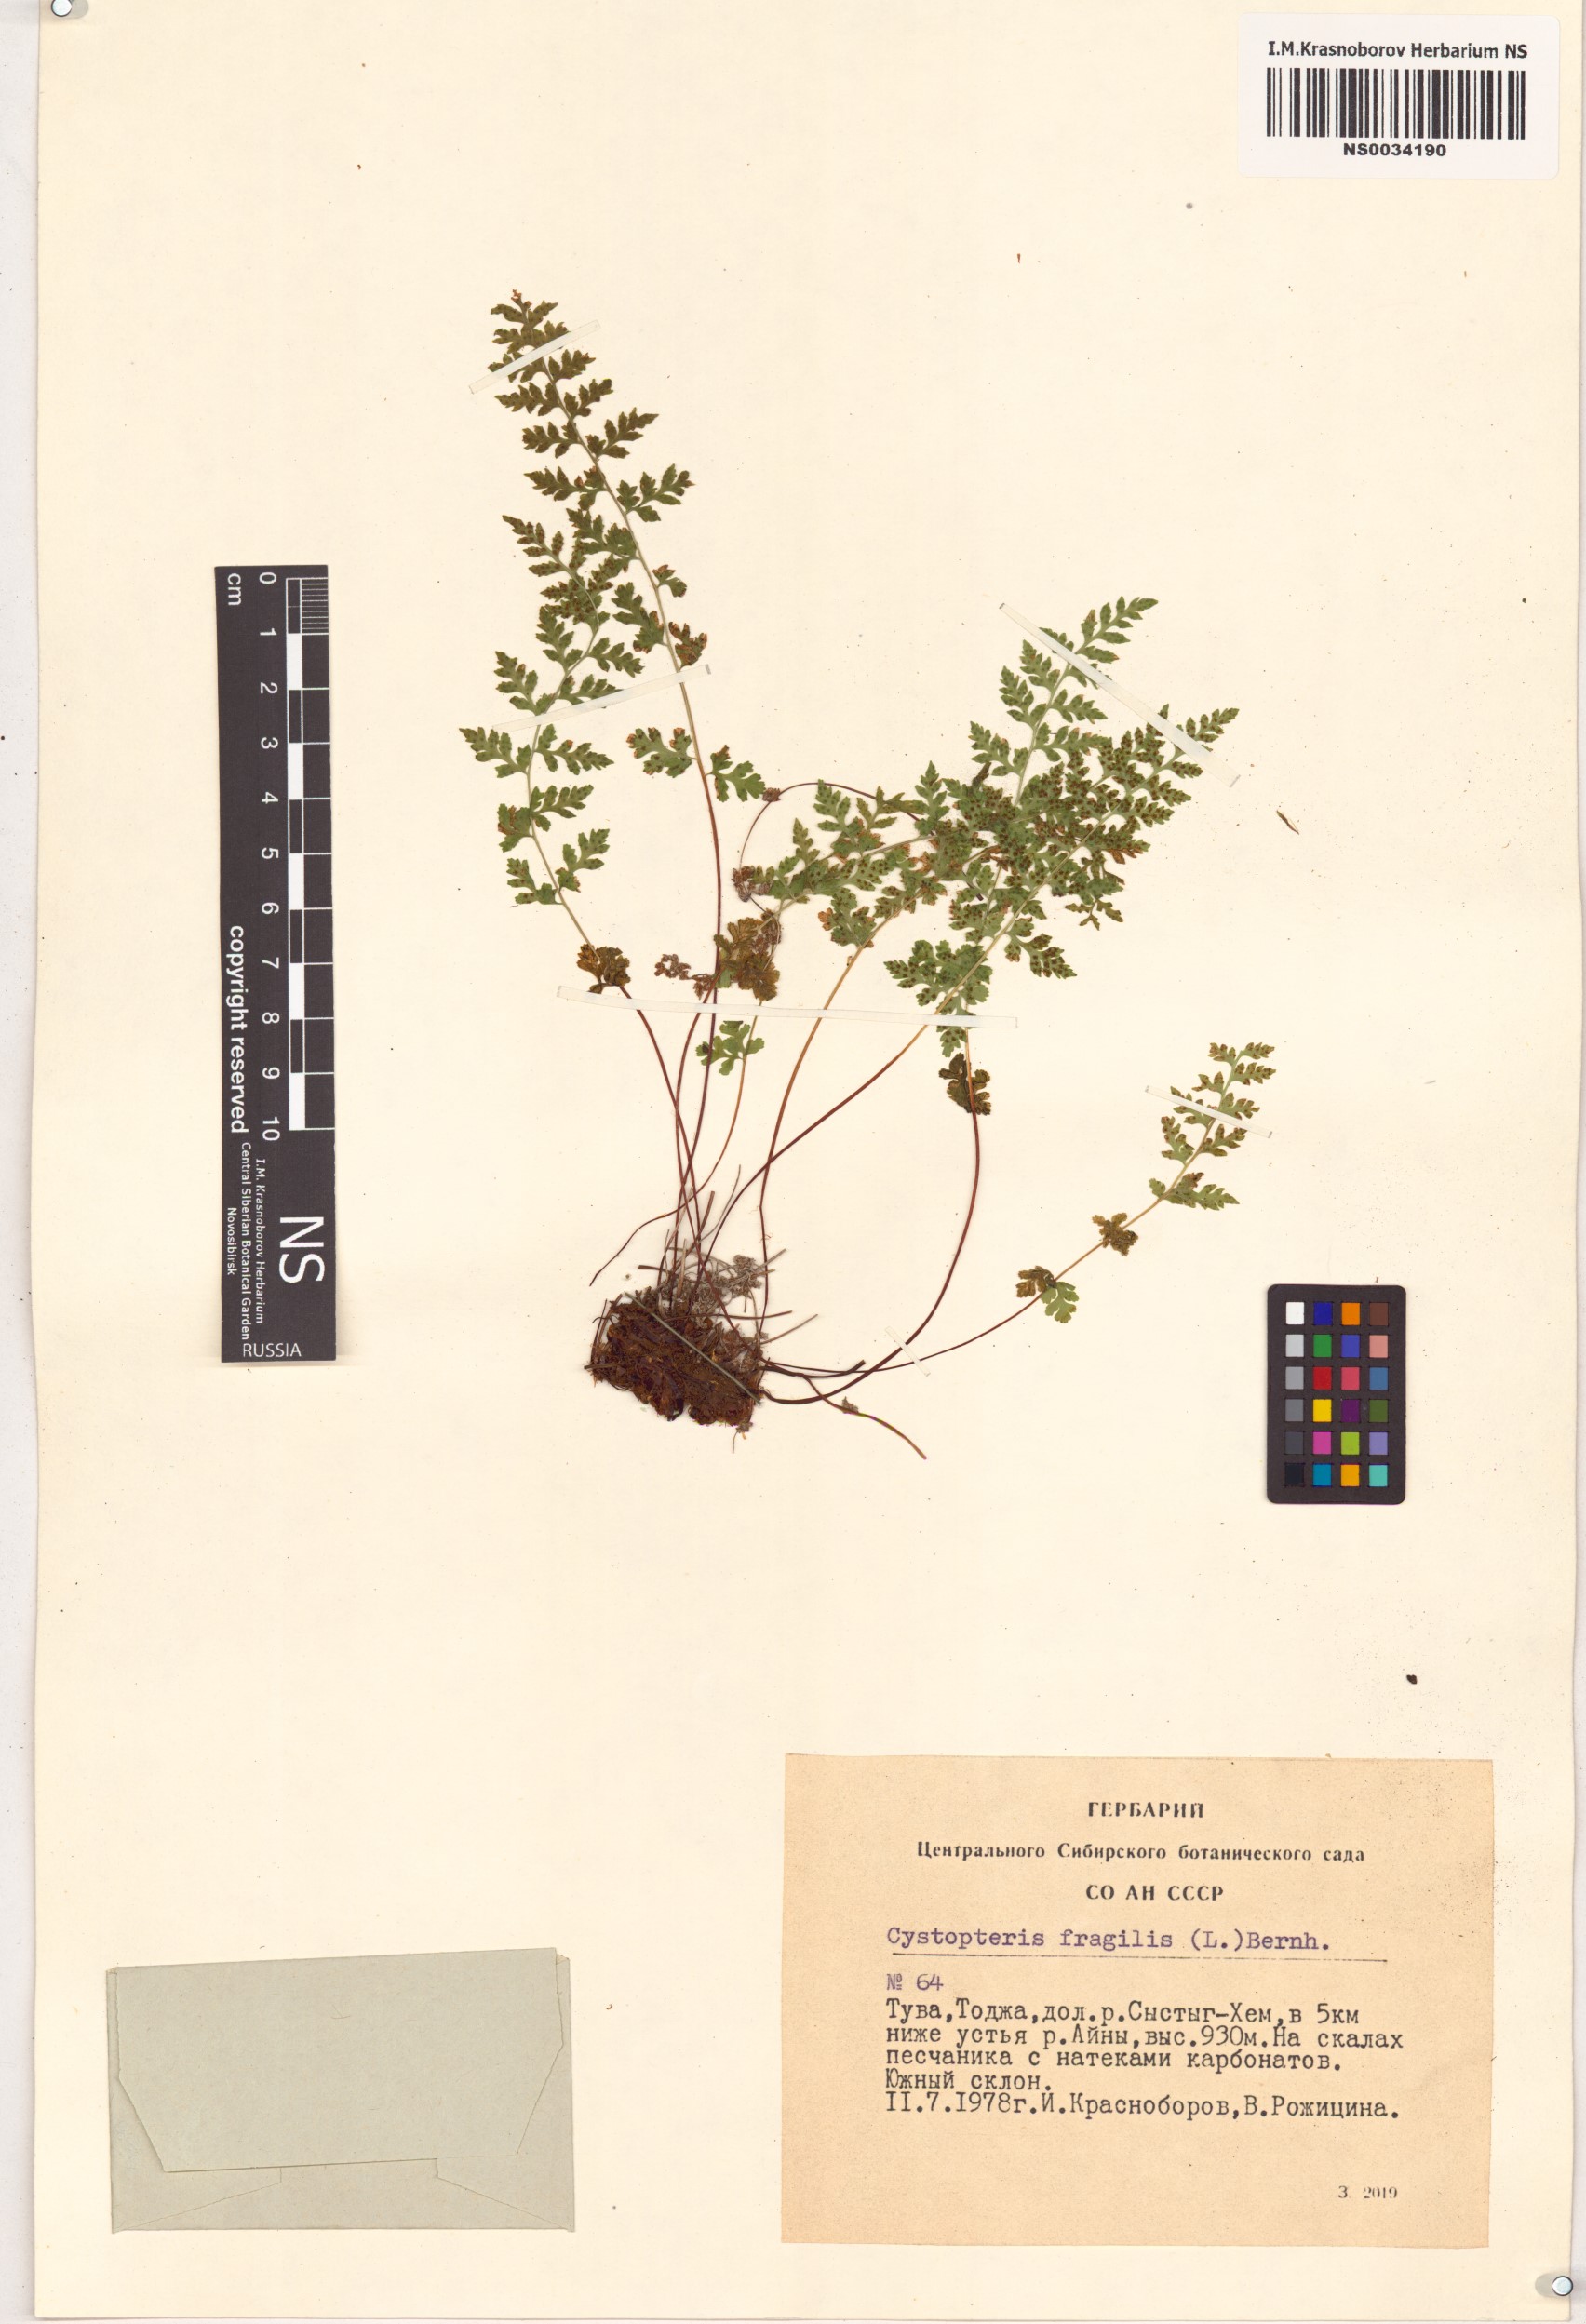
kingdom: Plantae
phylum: Tracheophyta
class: Polypodiopsida
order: Polypodiales
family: Cystopteridaceae
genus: Cystopteris
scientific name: Cystopteris fragilis
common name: Brittle bladder fern
